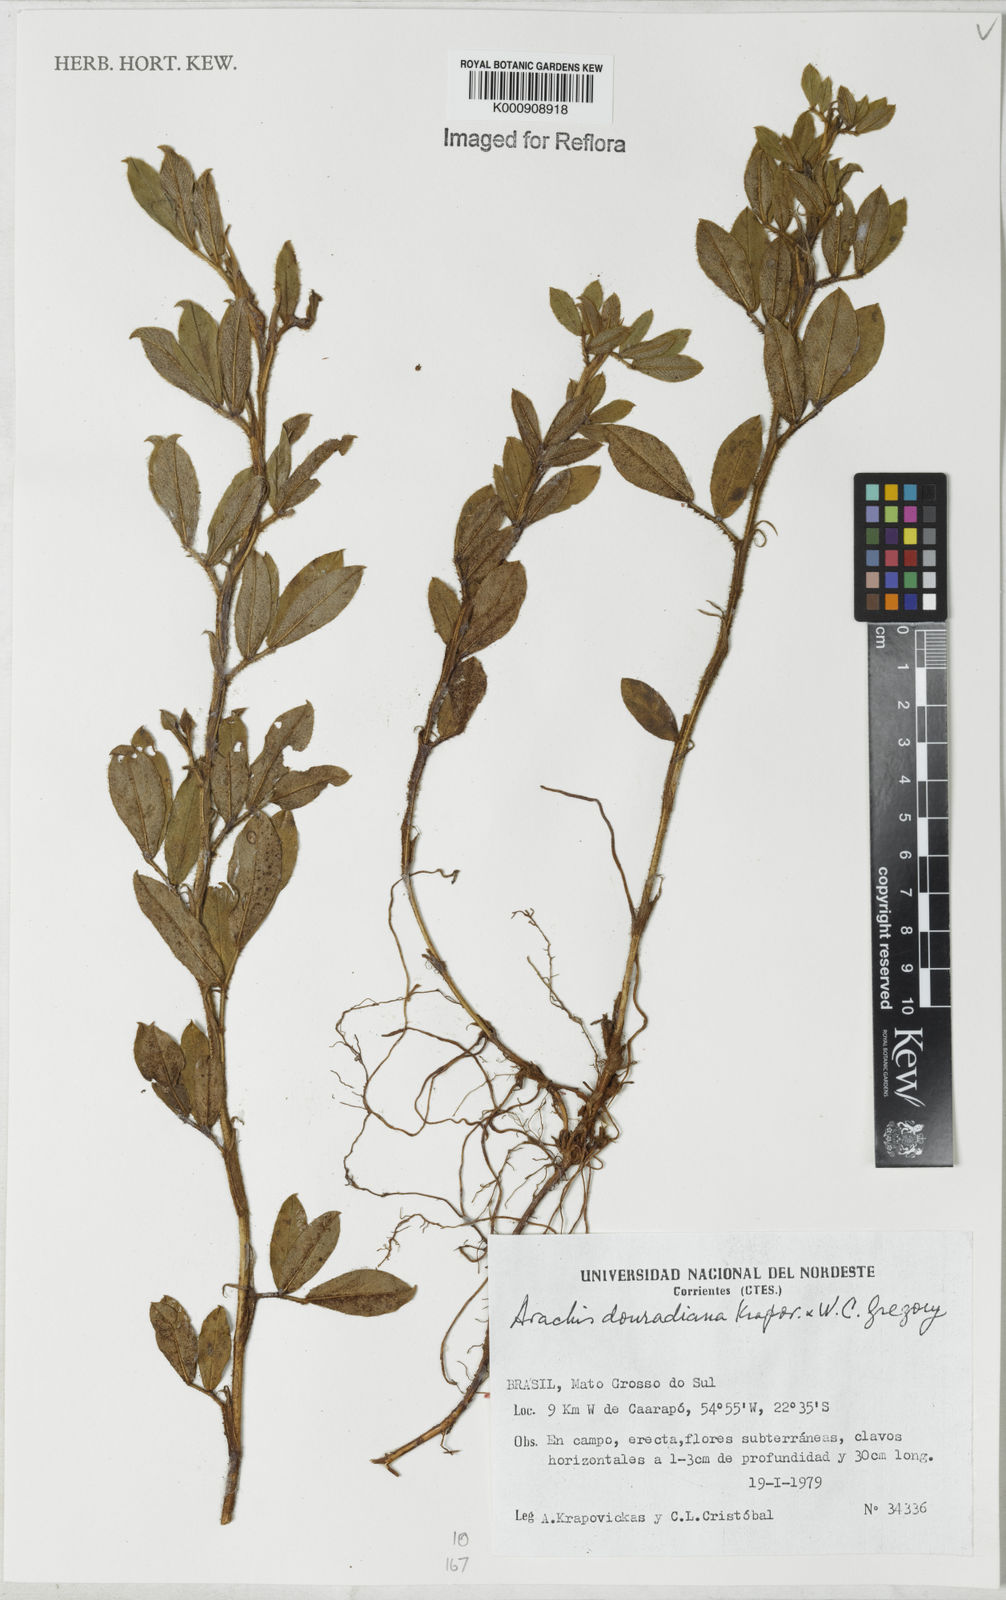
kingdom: Plantae
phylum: Tracheophyta
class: Magnoliopsida
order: Fabales
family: Fabaceae
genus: Arachis
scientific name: Arachis douradiana
